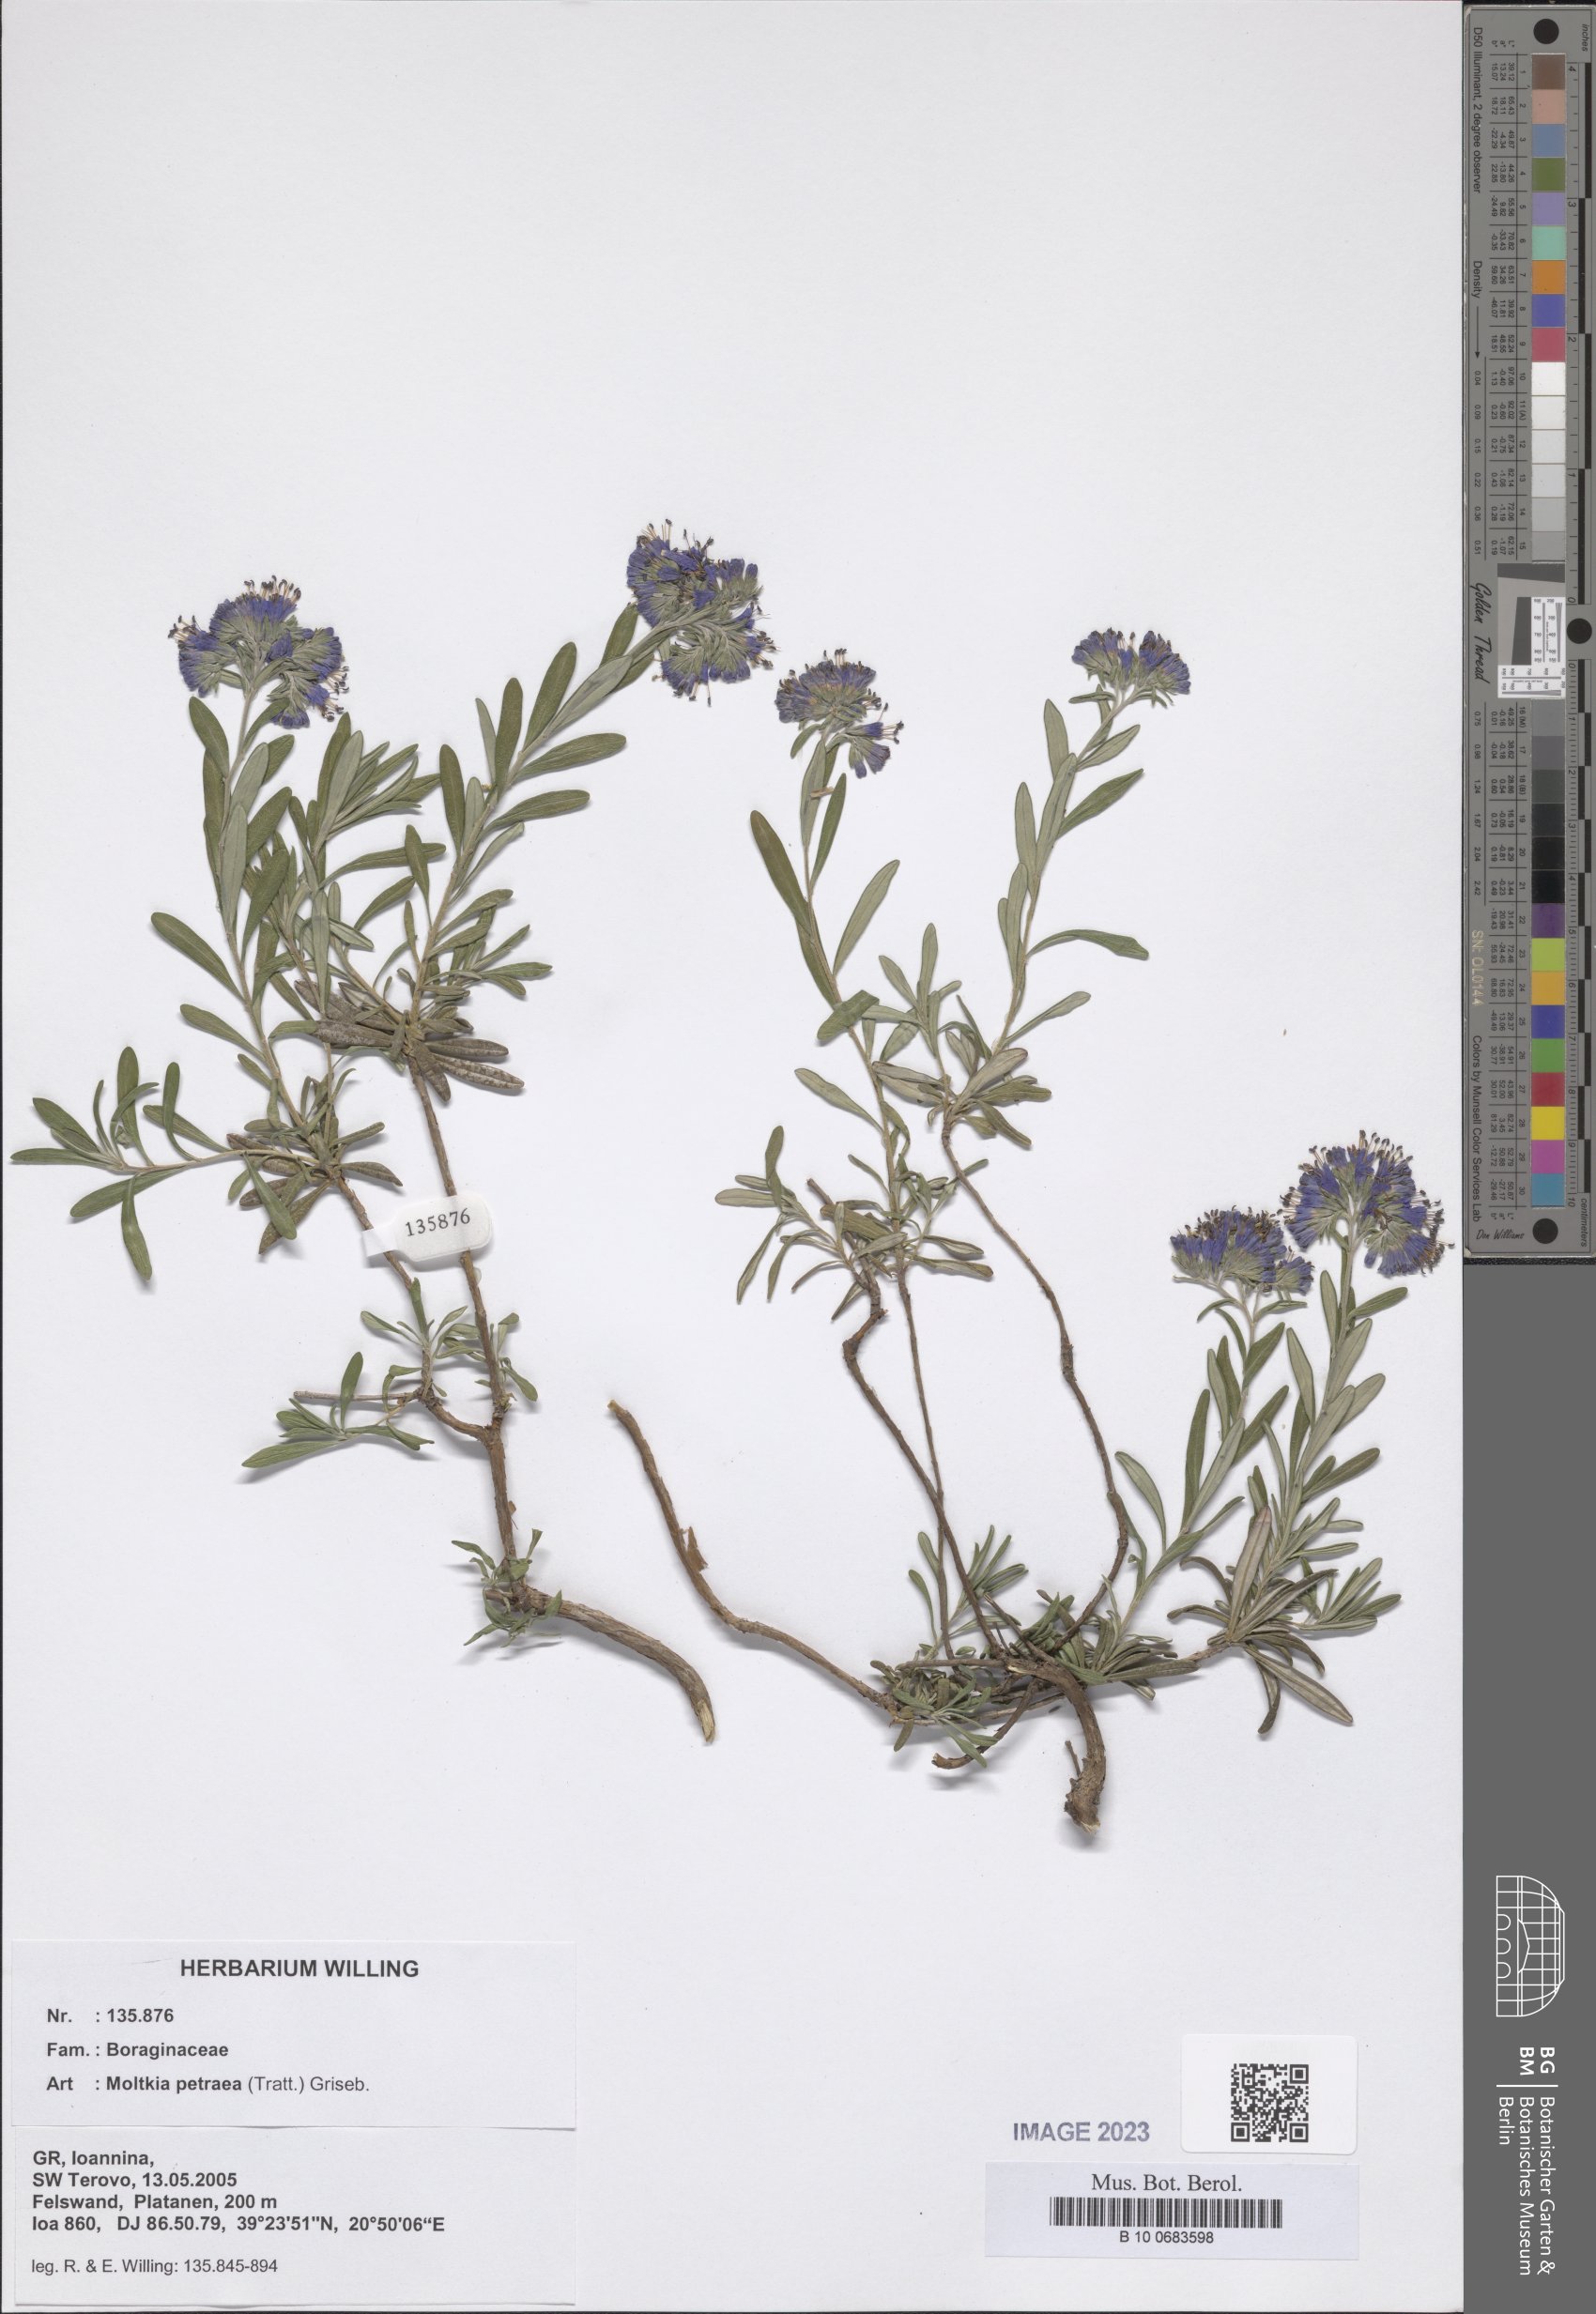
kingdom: Plantae
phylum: Tracheophyta
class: Magnoliopsida
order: Boraginales
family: Boraginaceae
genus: Moltkia
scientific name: Moltkia petraea
